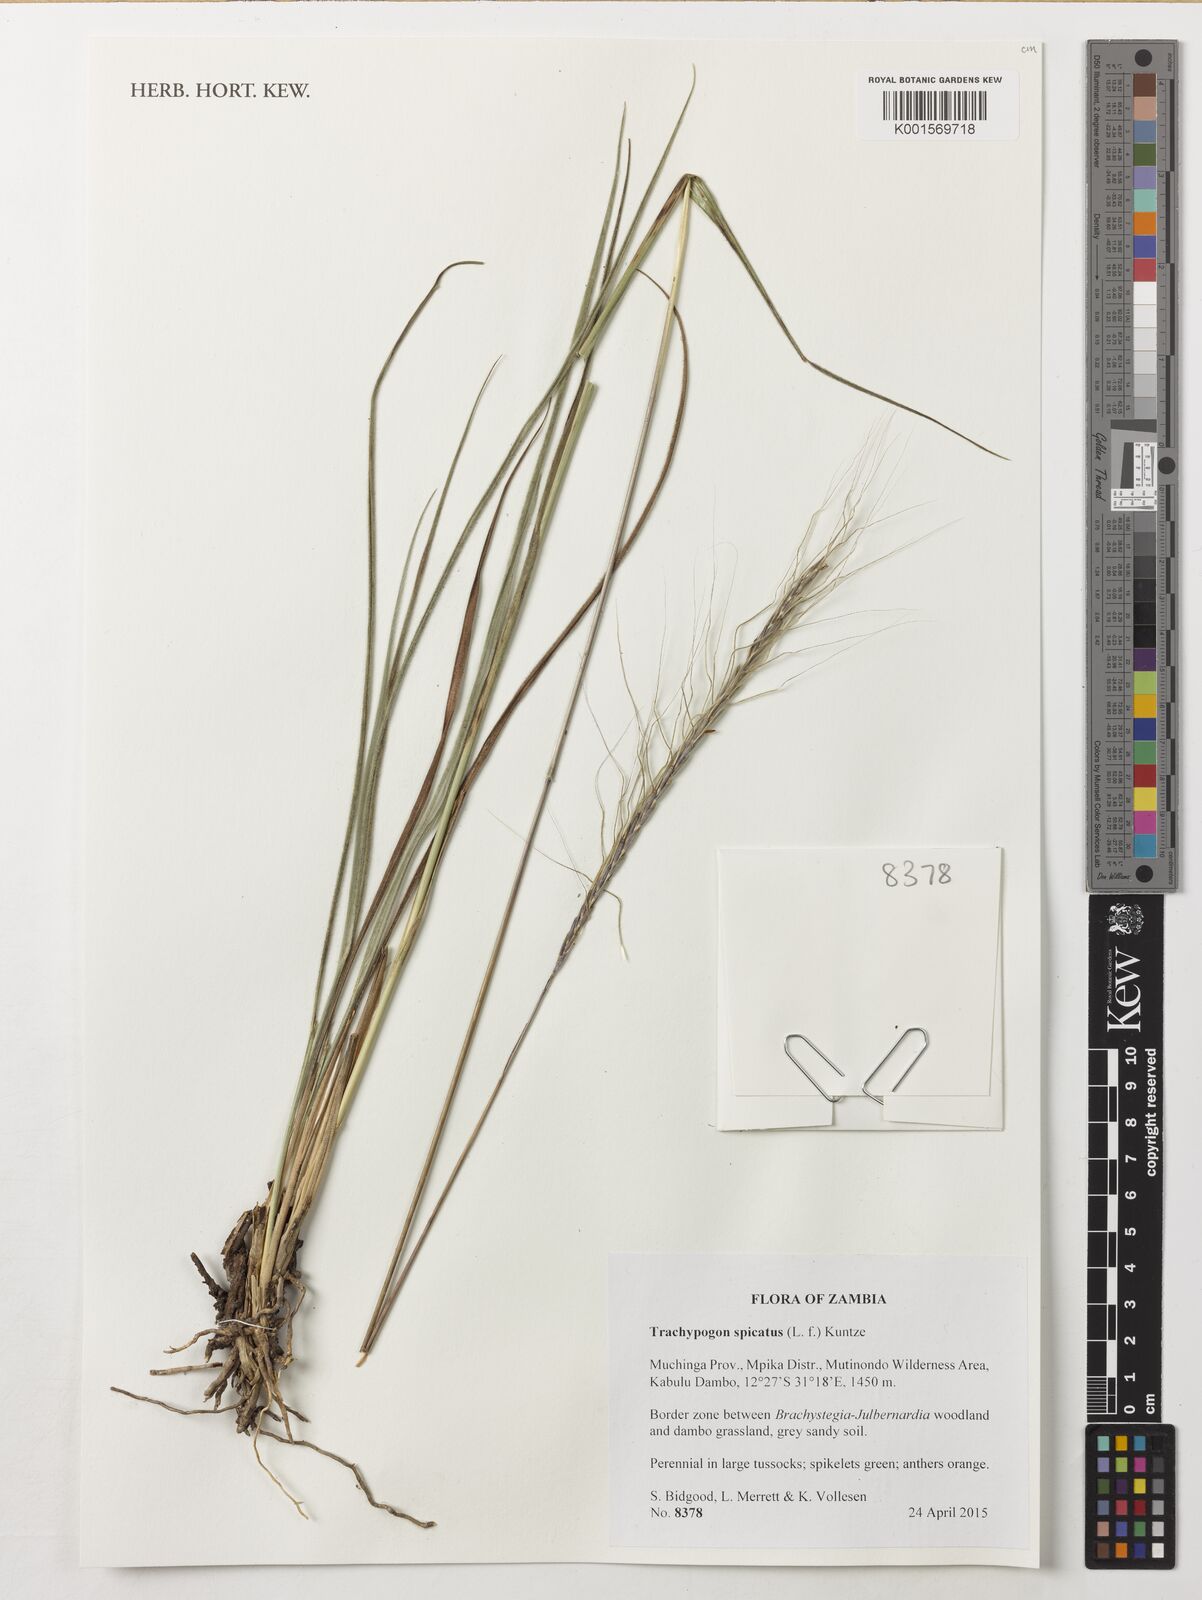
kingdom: Plantae
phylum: Tracheophyta
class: Liliopsida
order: Poales
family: Poaceae
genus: Trachypogon
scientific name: Trachypogon spicatus
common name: Crinkle-awn
